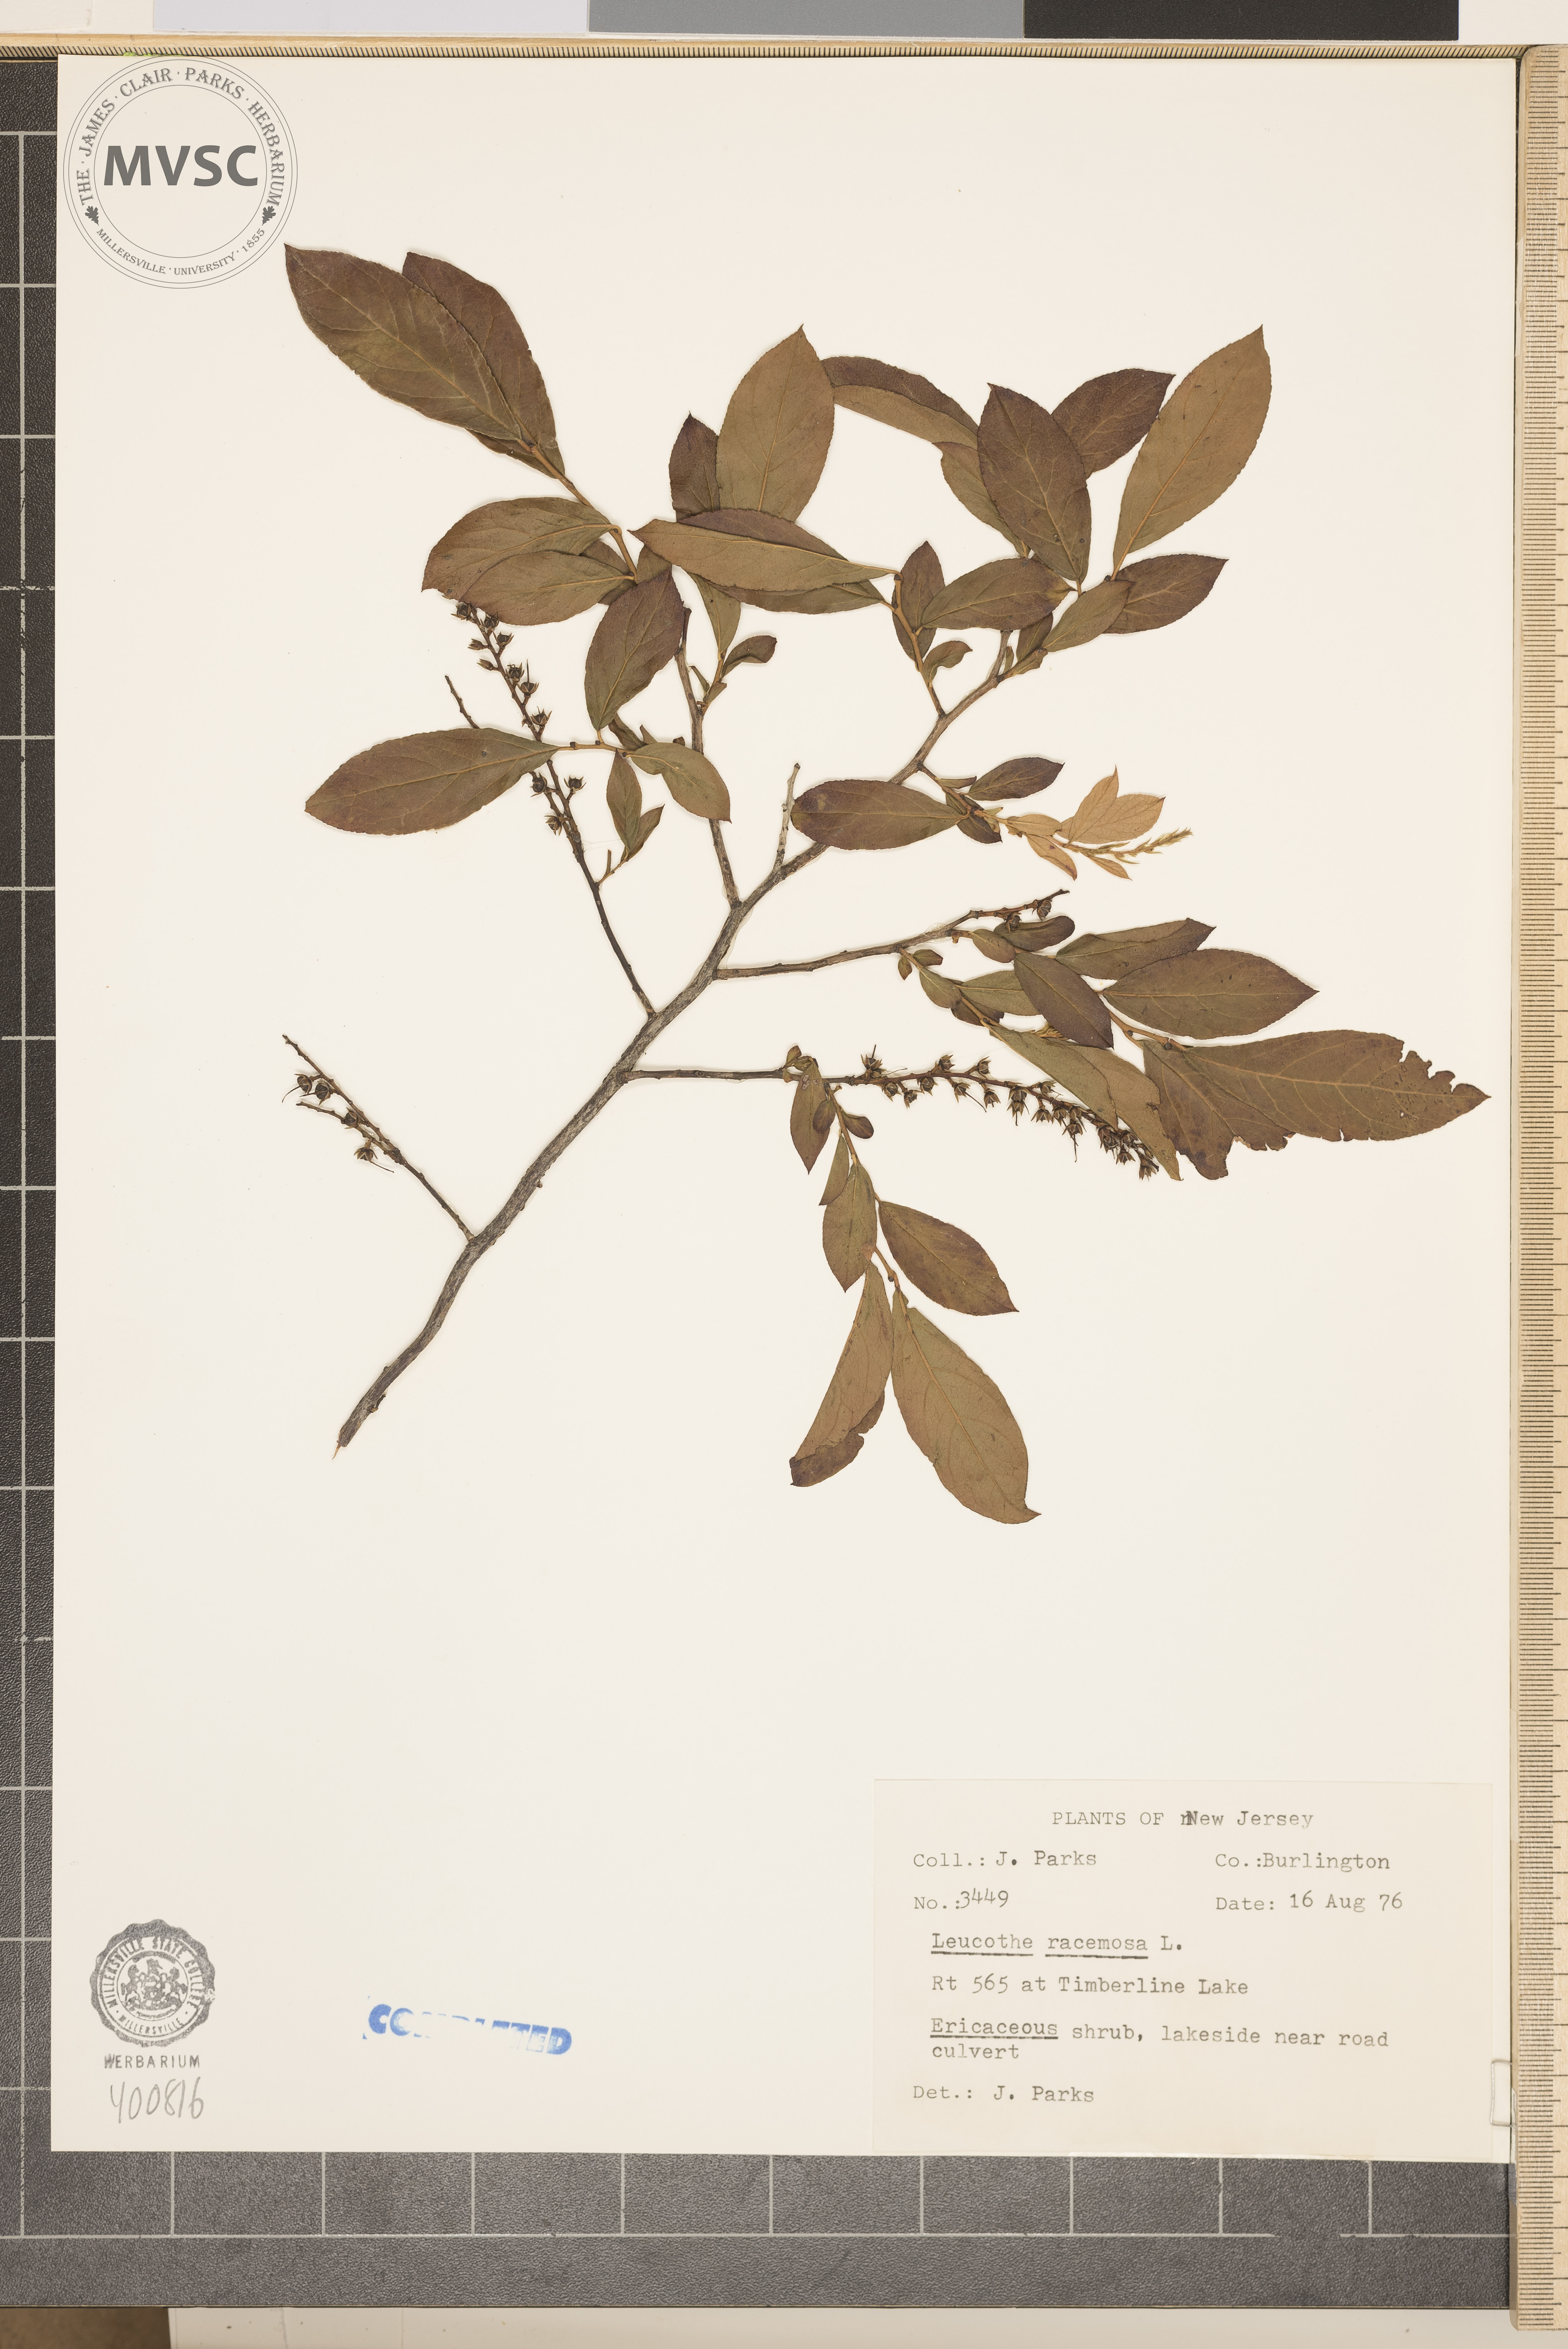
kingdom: Plantae
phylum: Tracheophyta
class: Magnoliopsida
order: Ericales
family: Ericaceae
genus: Eubotrys
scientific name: Eubotrys racemosa
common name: Fetterbush
